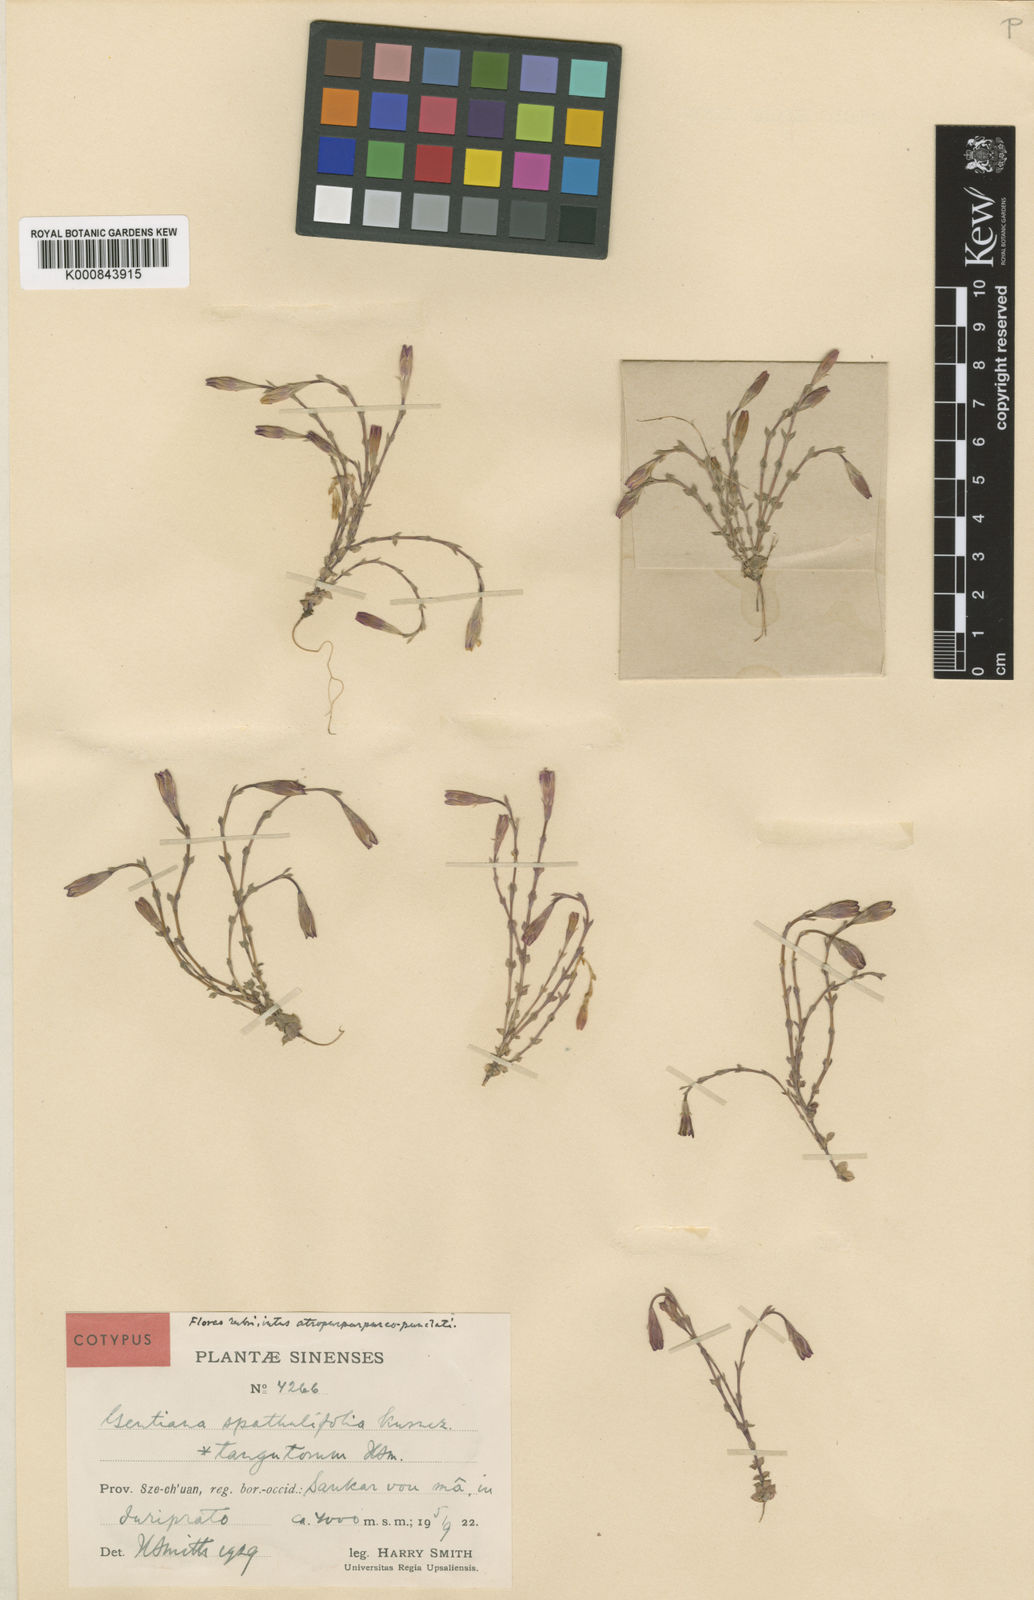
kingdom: Plantae
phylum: Tracheophyta
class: Magnoliopsida
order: Gentianales
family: Gentianaceae
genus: Gentiana
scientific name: Gentiana spathulifolia
